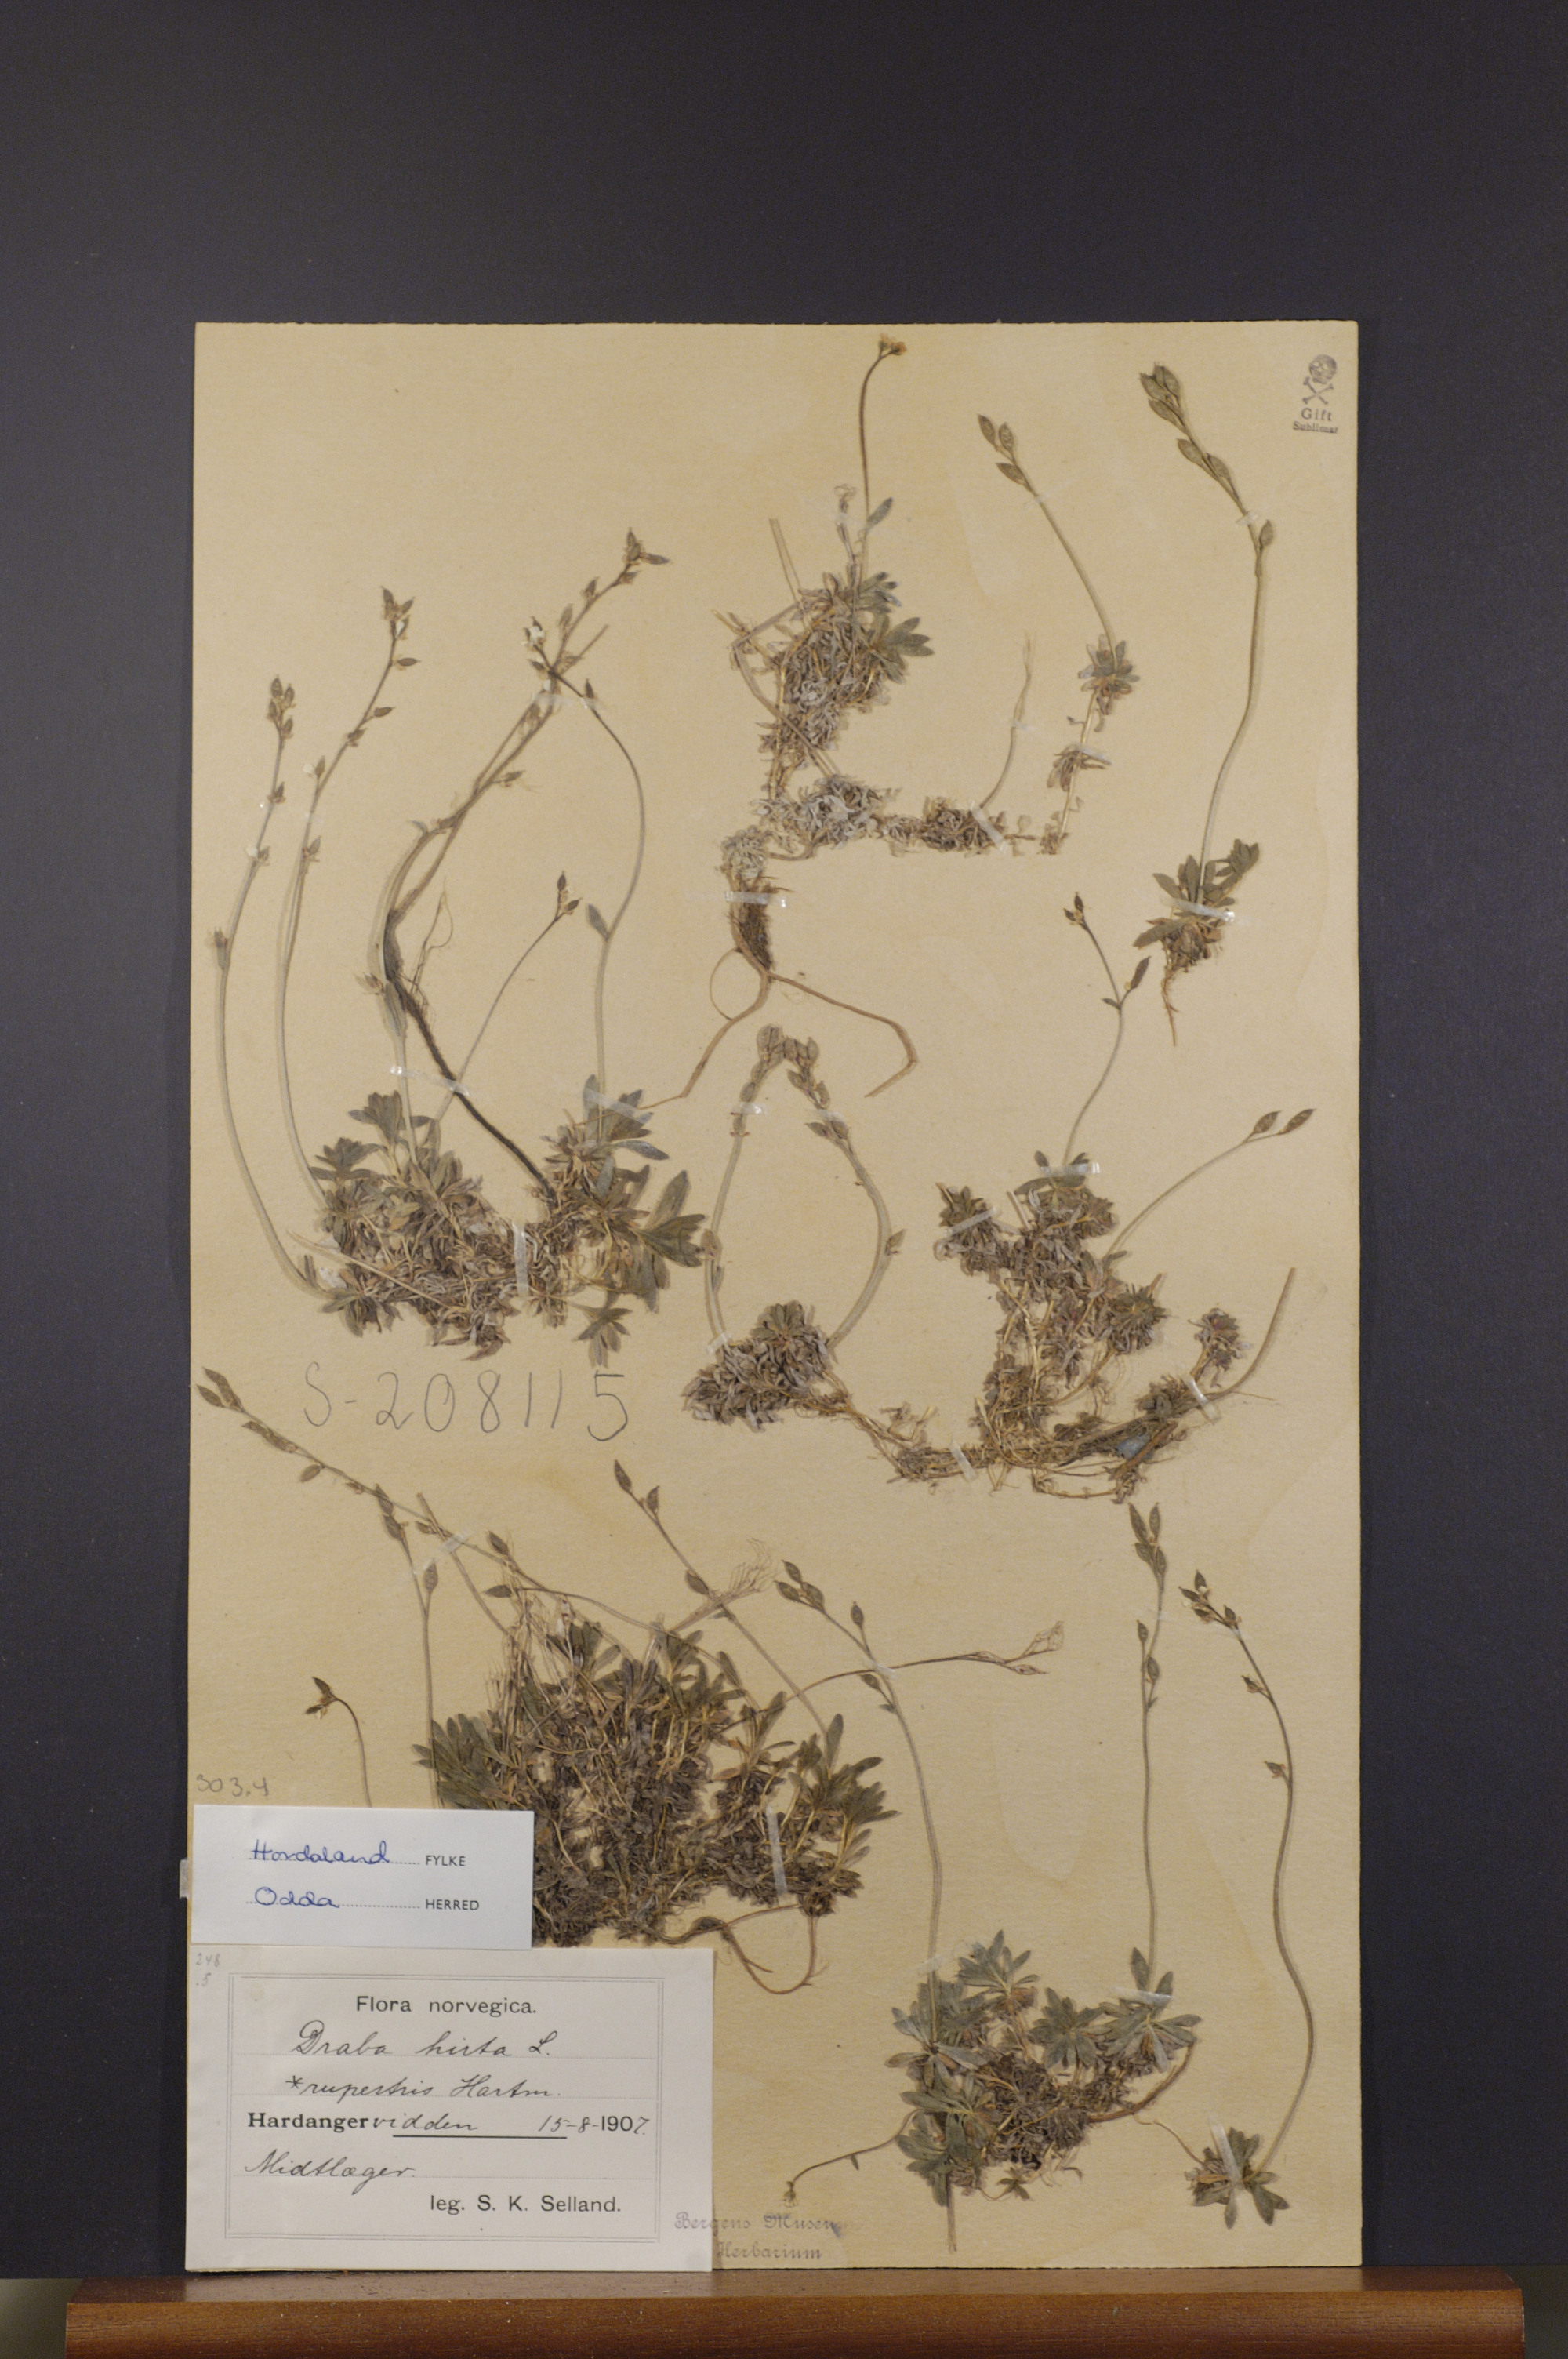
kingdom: Plantae
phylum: Tracheophyta
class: Magnoliopsida
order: Brassicales
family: Brassicaceae
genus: Draba
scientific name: Draba norvegica
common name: Rock whitlowgrass
